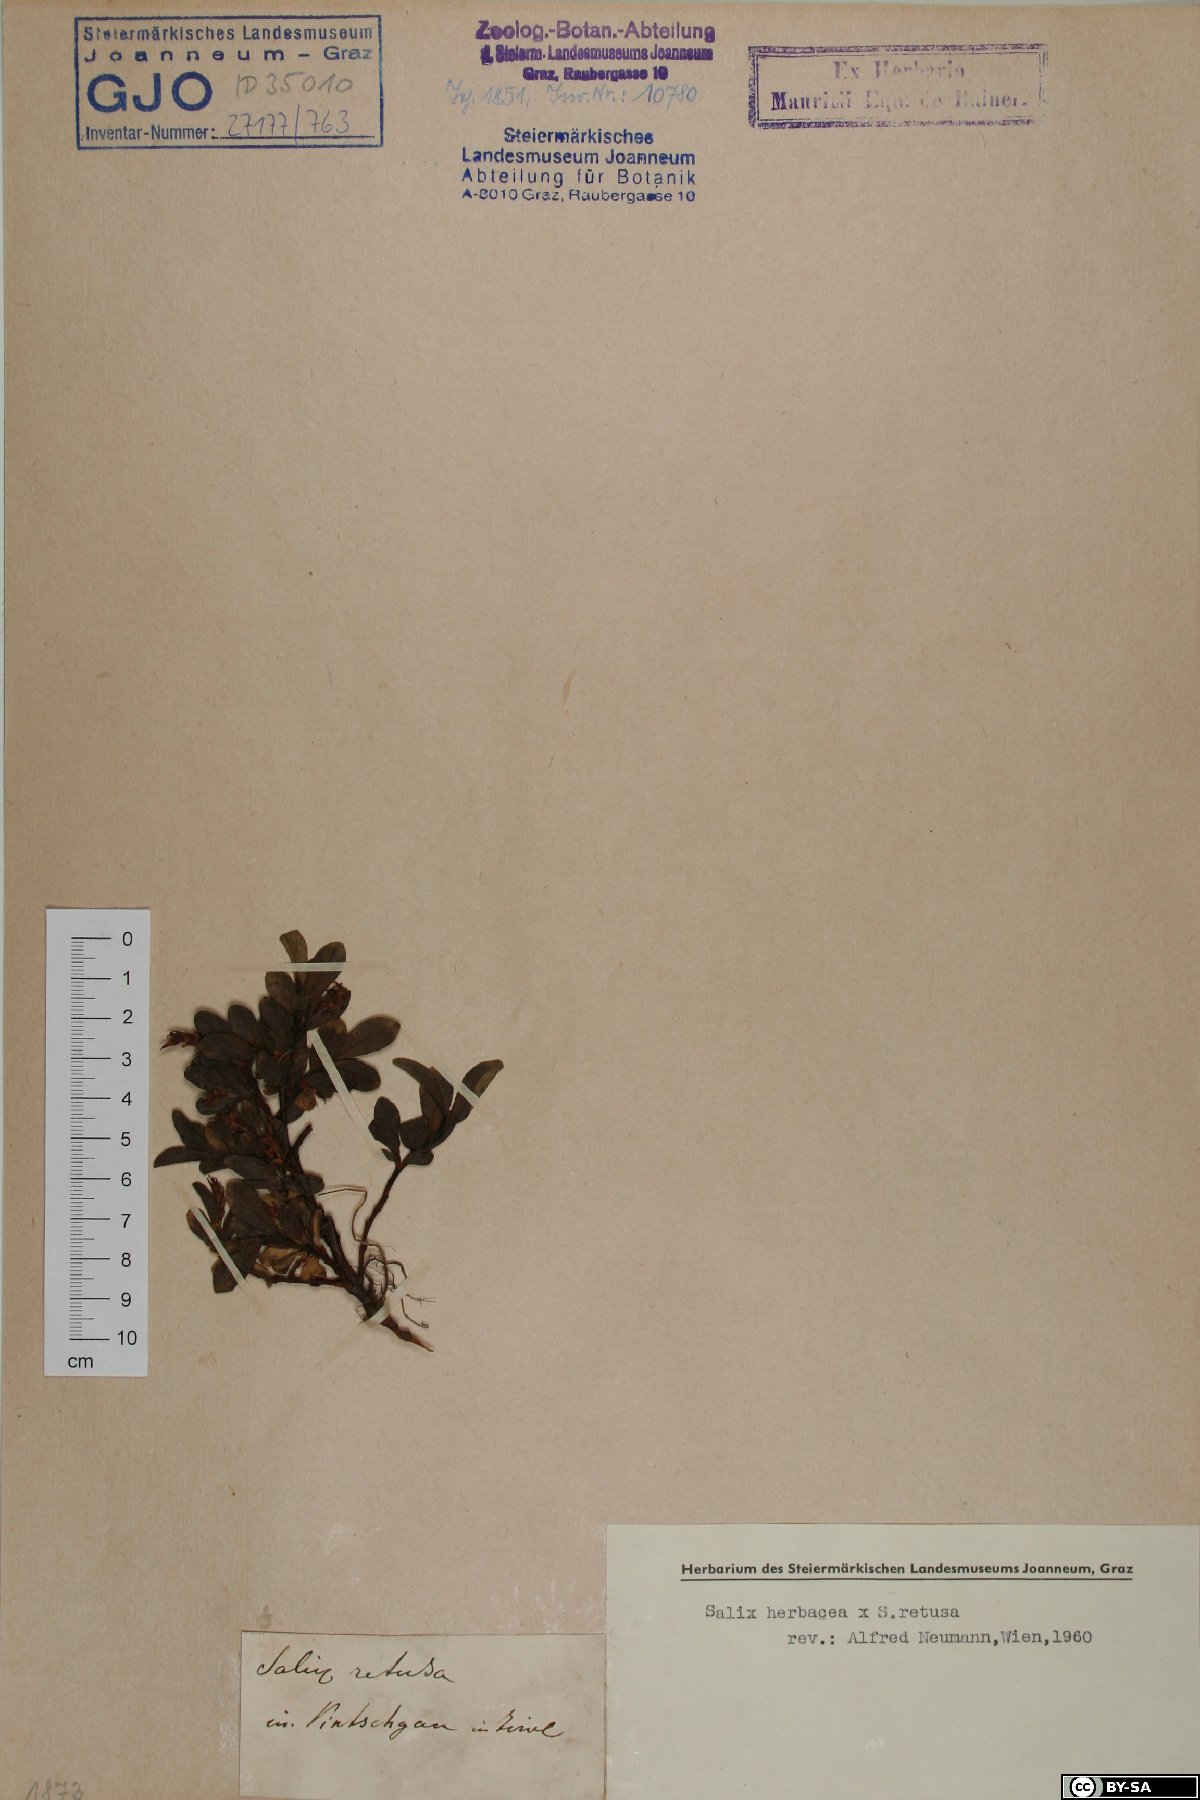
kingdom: Plantae
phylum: Tracheophyta
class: Magnoliopsida
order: Malpighiales
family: Salicaceae
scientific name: Salicaceae
